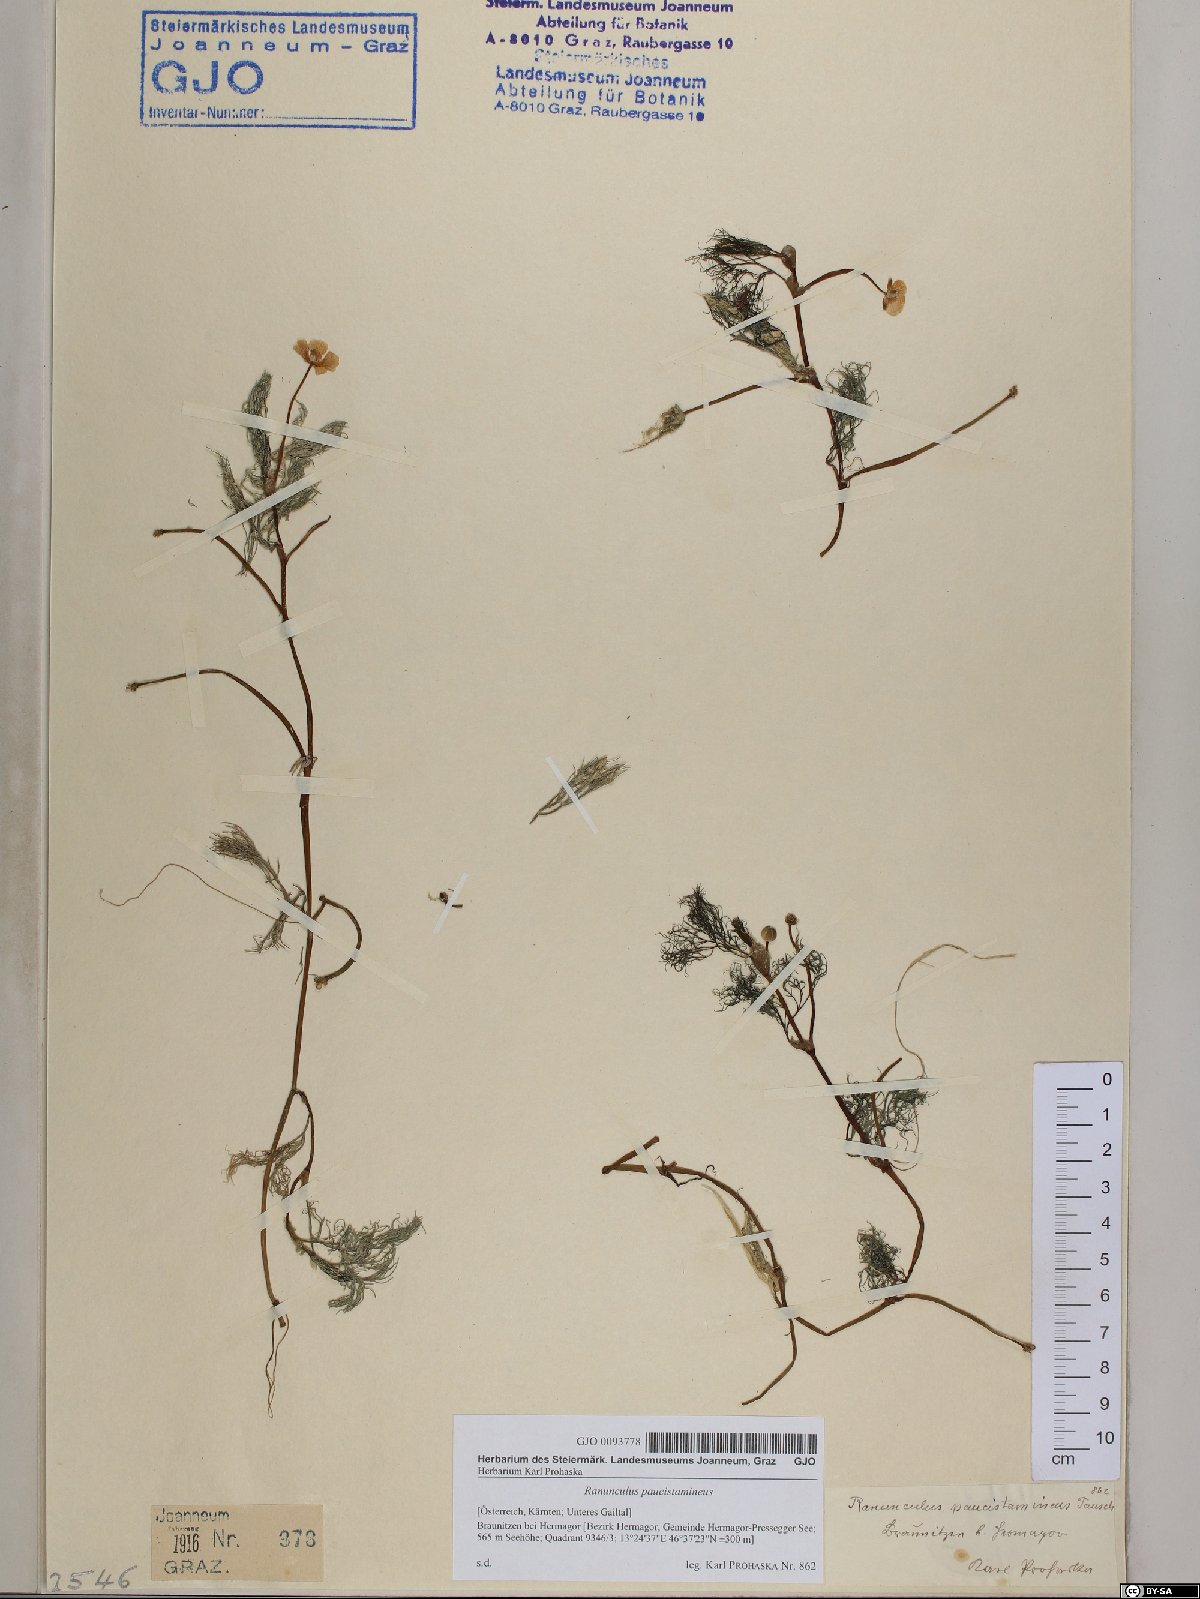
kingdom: Plantae
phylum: Tracheophyta
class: Magnoliopsida
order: Ranunculales
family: Ranunculaceae
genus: Ranunculus
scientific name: Ranunculus
